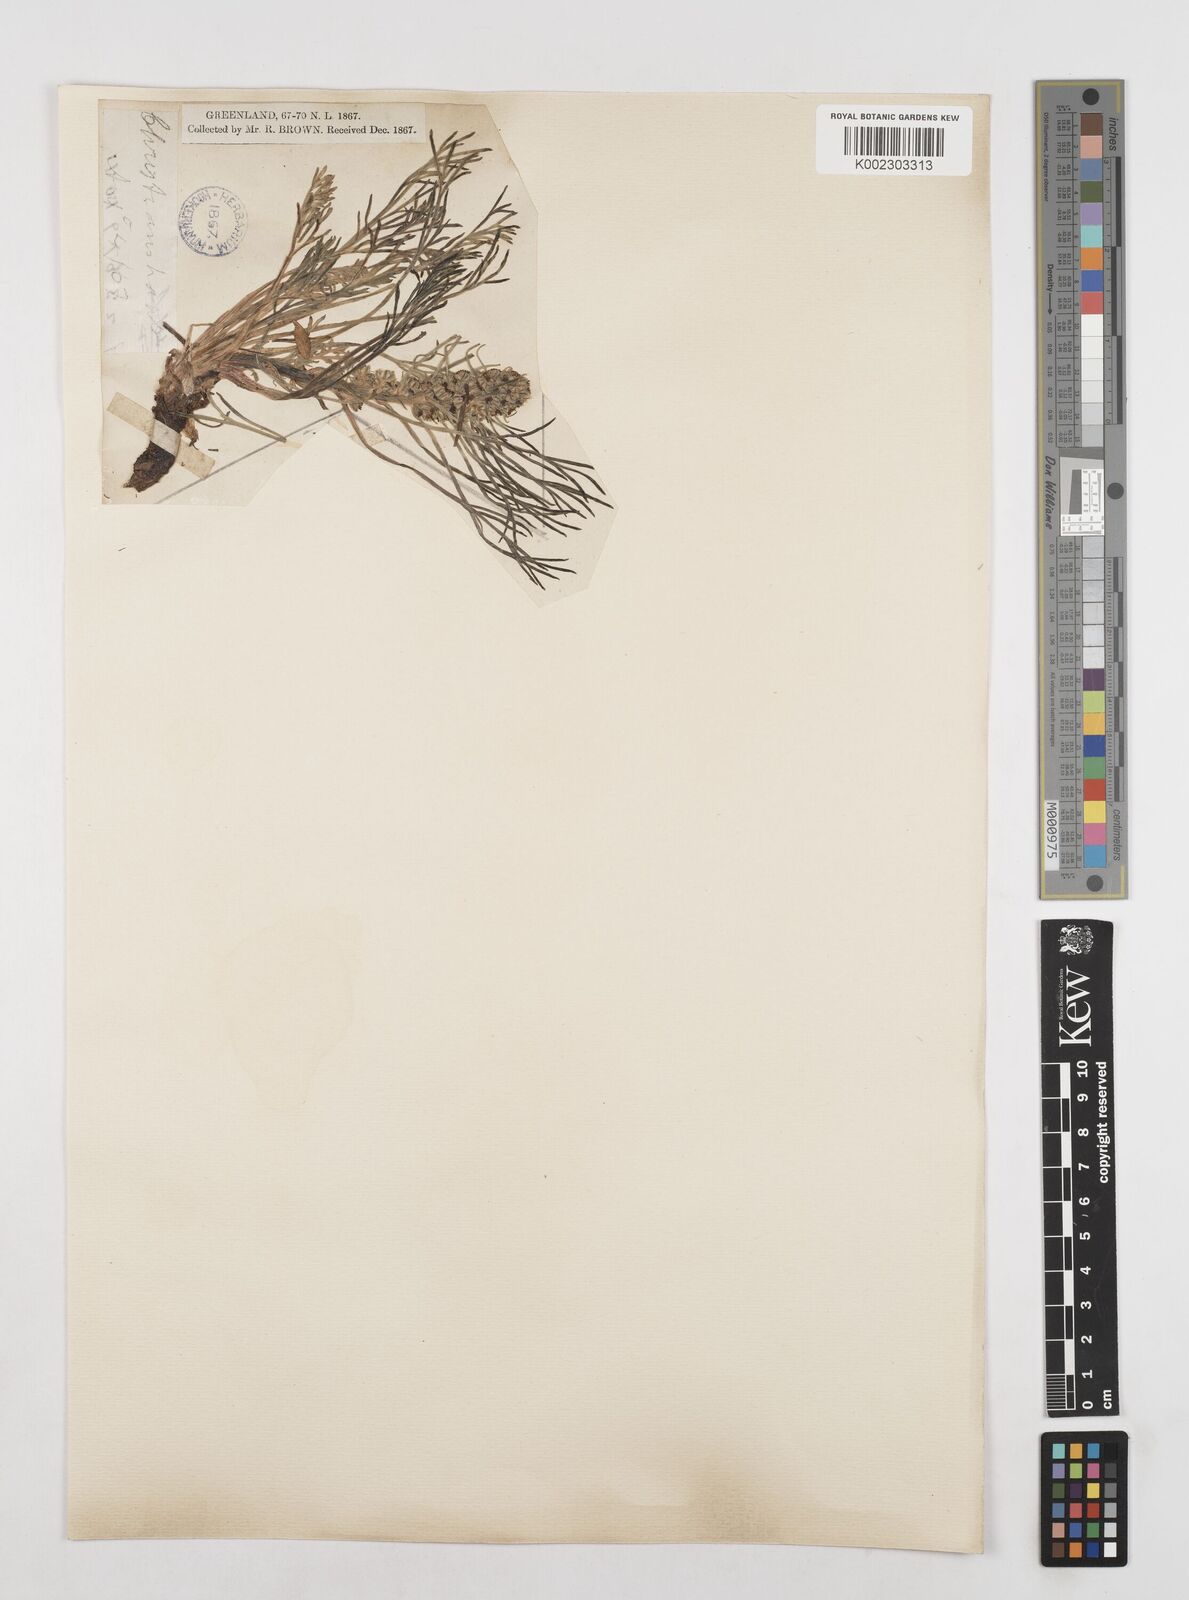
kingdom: Plantae
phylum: Tracheophyta
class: Magnoliopsida
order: Asterales
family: Asteraceae
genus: Artemisia
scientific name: Artemisia borealis
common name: Boreal sage
